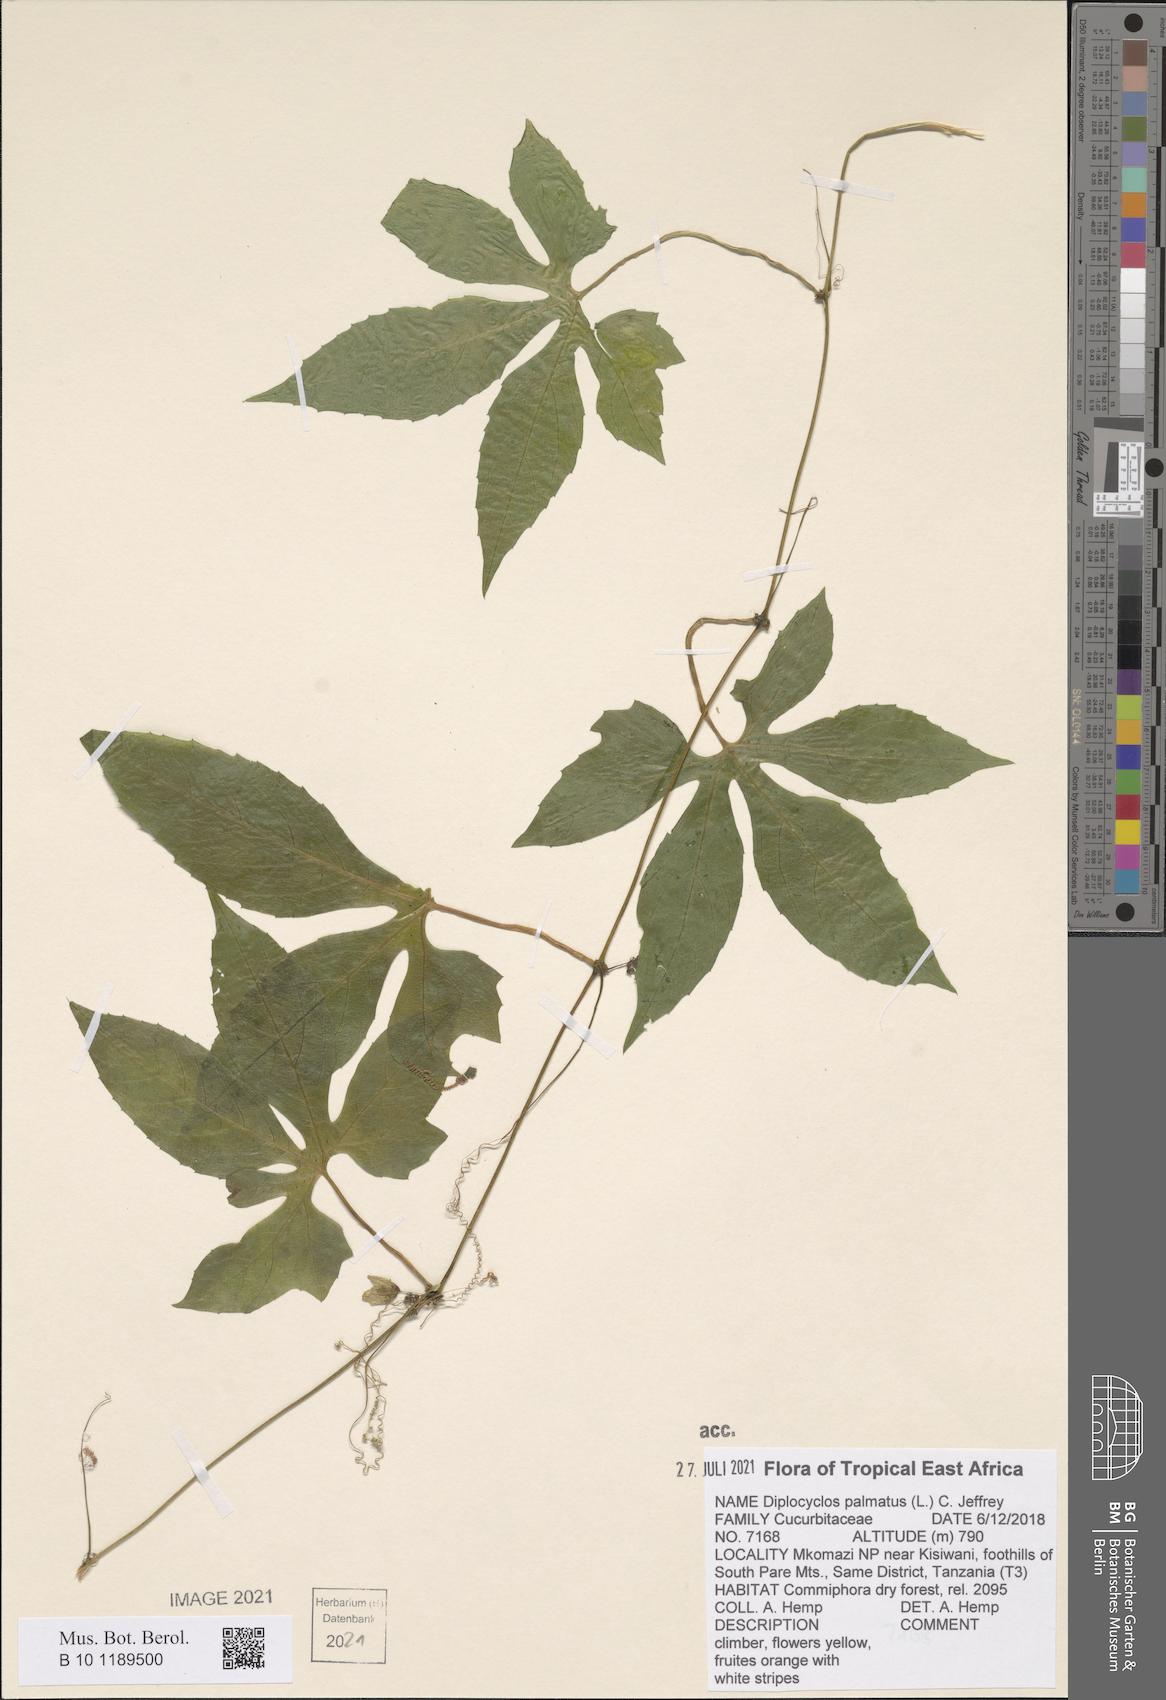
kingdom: Plantae
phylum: Tracheophyta
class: Magnoliopsida
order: Cucurbitales
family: Cucurbitaceae
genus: Diplocyclos
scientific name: Diplocyclos palmatus
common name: Striped-cucumber
